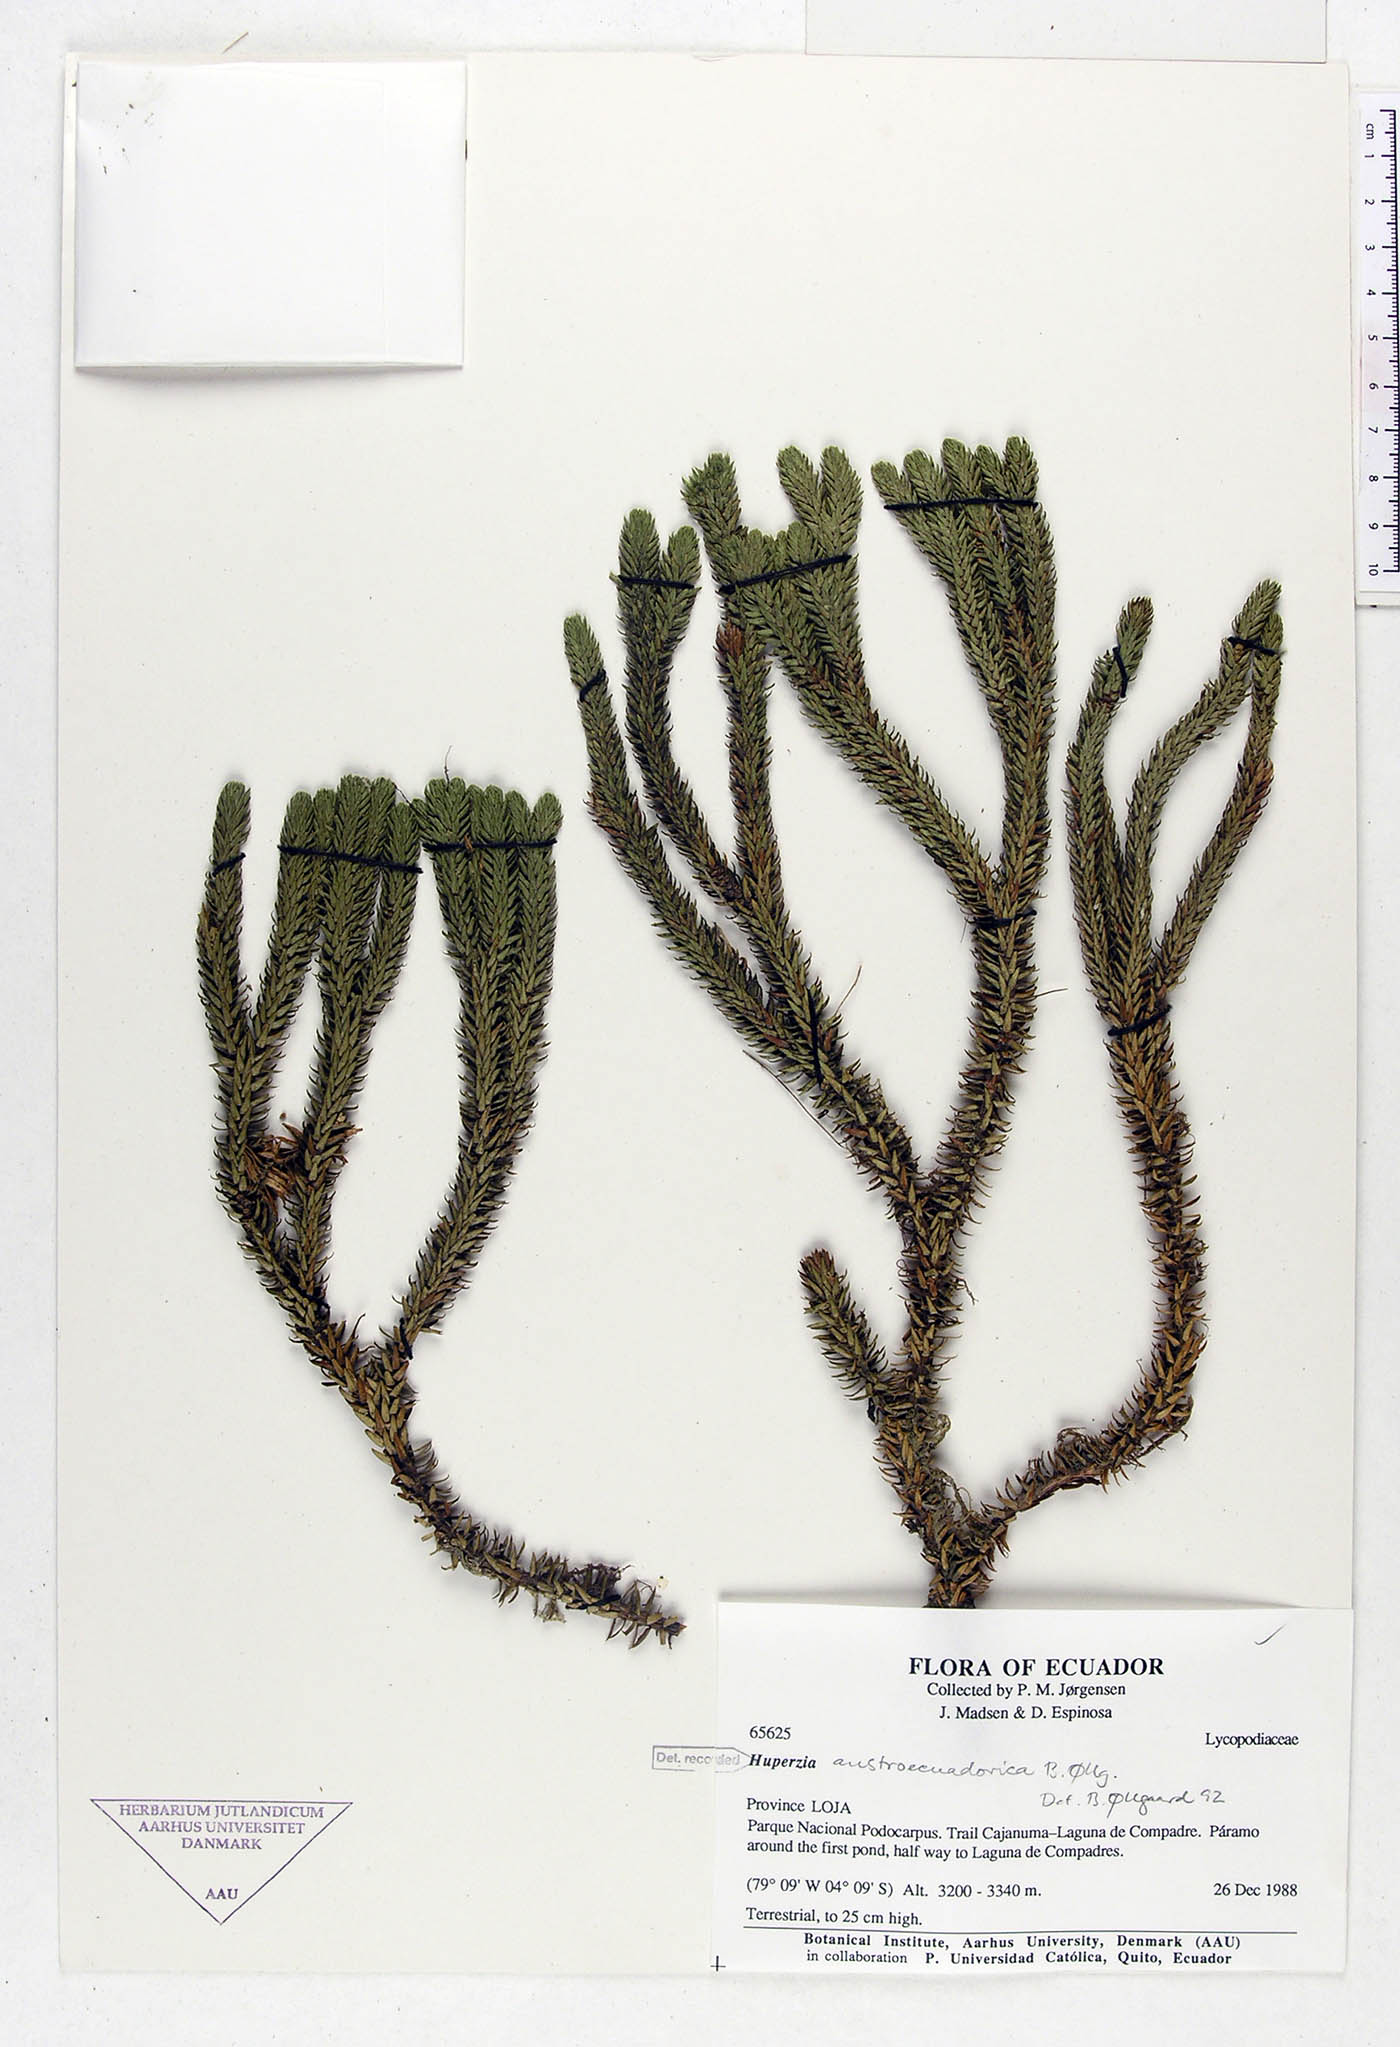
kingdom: Plantae
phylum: Tracheophyta
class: Lycopodiopsida
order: Lycopodiales
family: Lycopodiaceae
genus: Phlegmariurus
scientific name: Phlegmariurus austroecuadoricus
